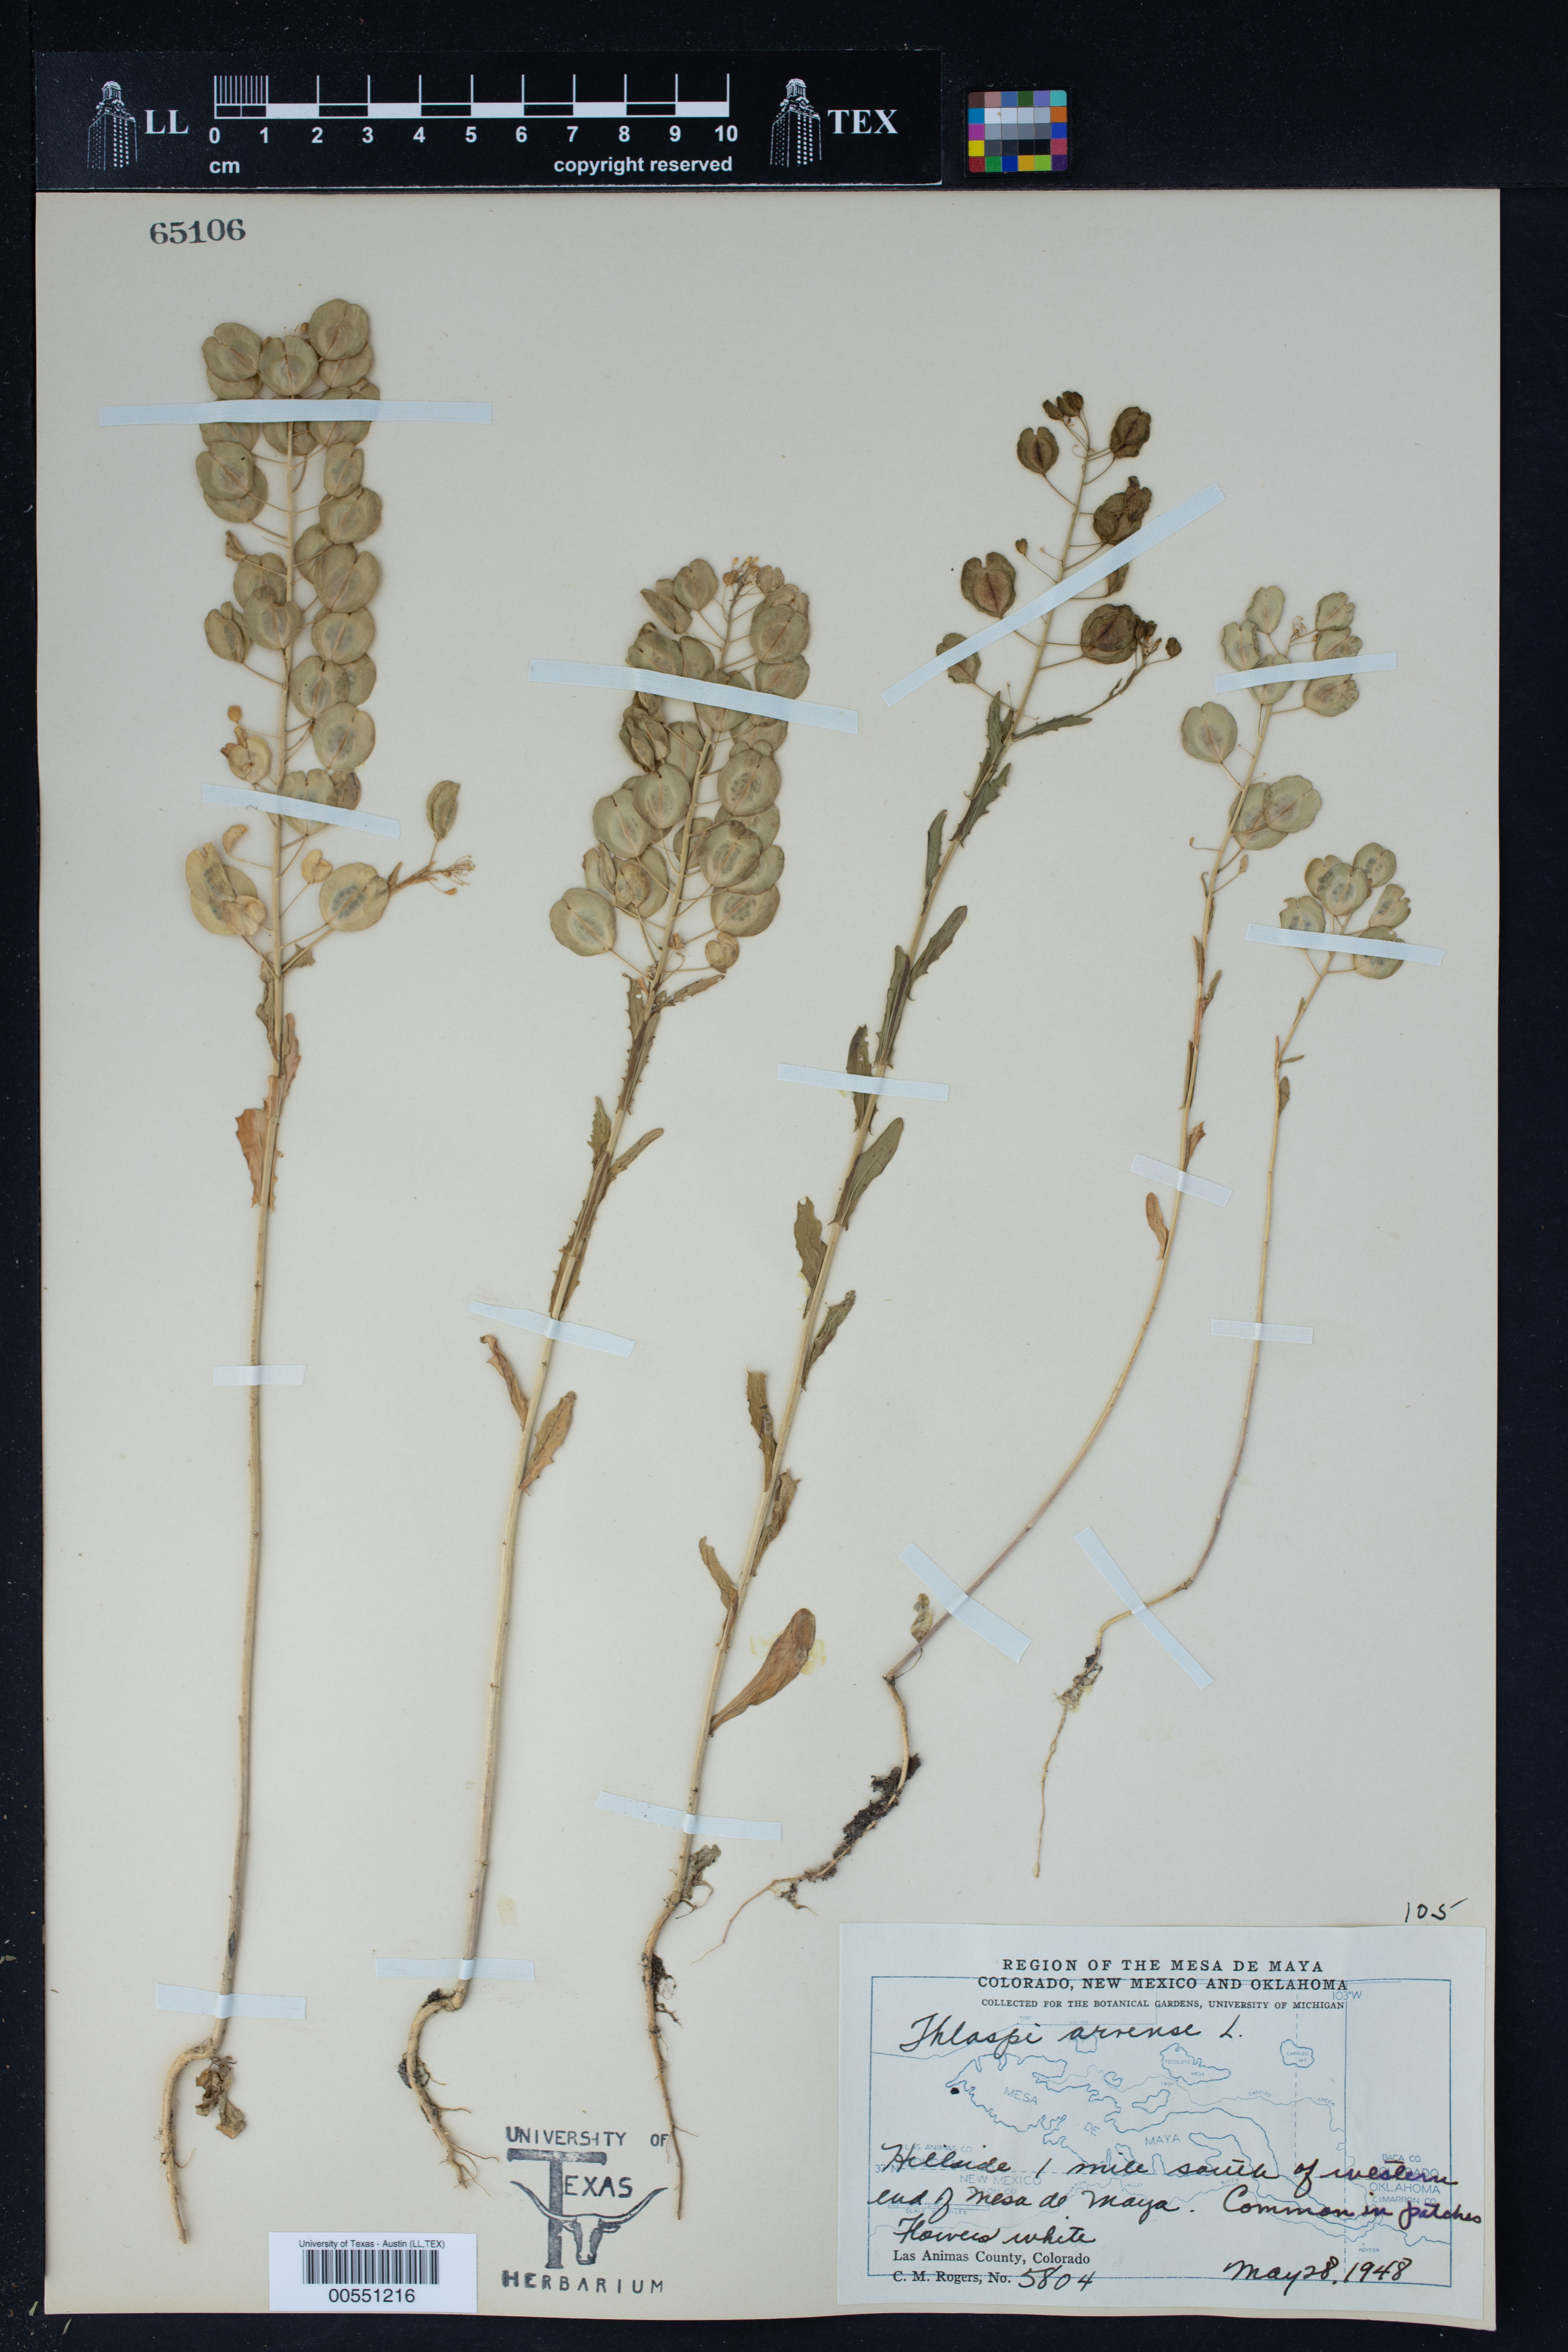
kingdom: Plantae
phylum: Tracheophyta
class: Magnoliopsida
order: Brassicales
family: Brassicaceae
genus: Thlaspi
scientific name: Thlaspi arvense
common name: Field pennycress
